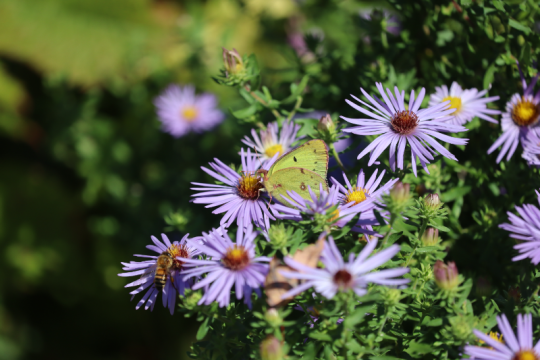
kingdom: Animalia
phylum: Arthropoda
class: Insecta
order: Lepidoptera
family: Pieridae
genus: Colias
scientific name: Colias philodice
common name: Clouded Sulphur
